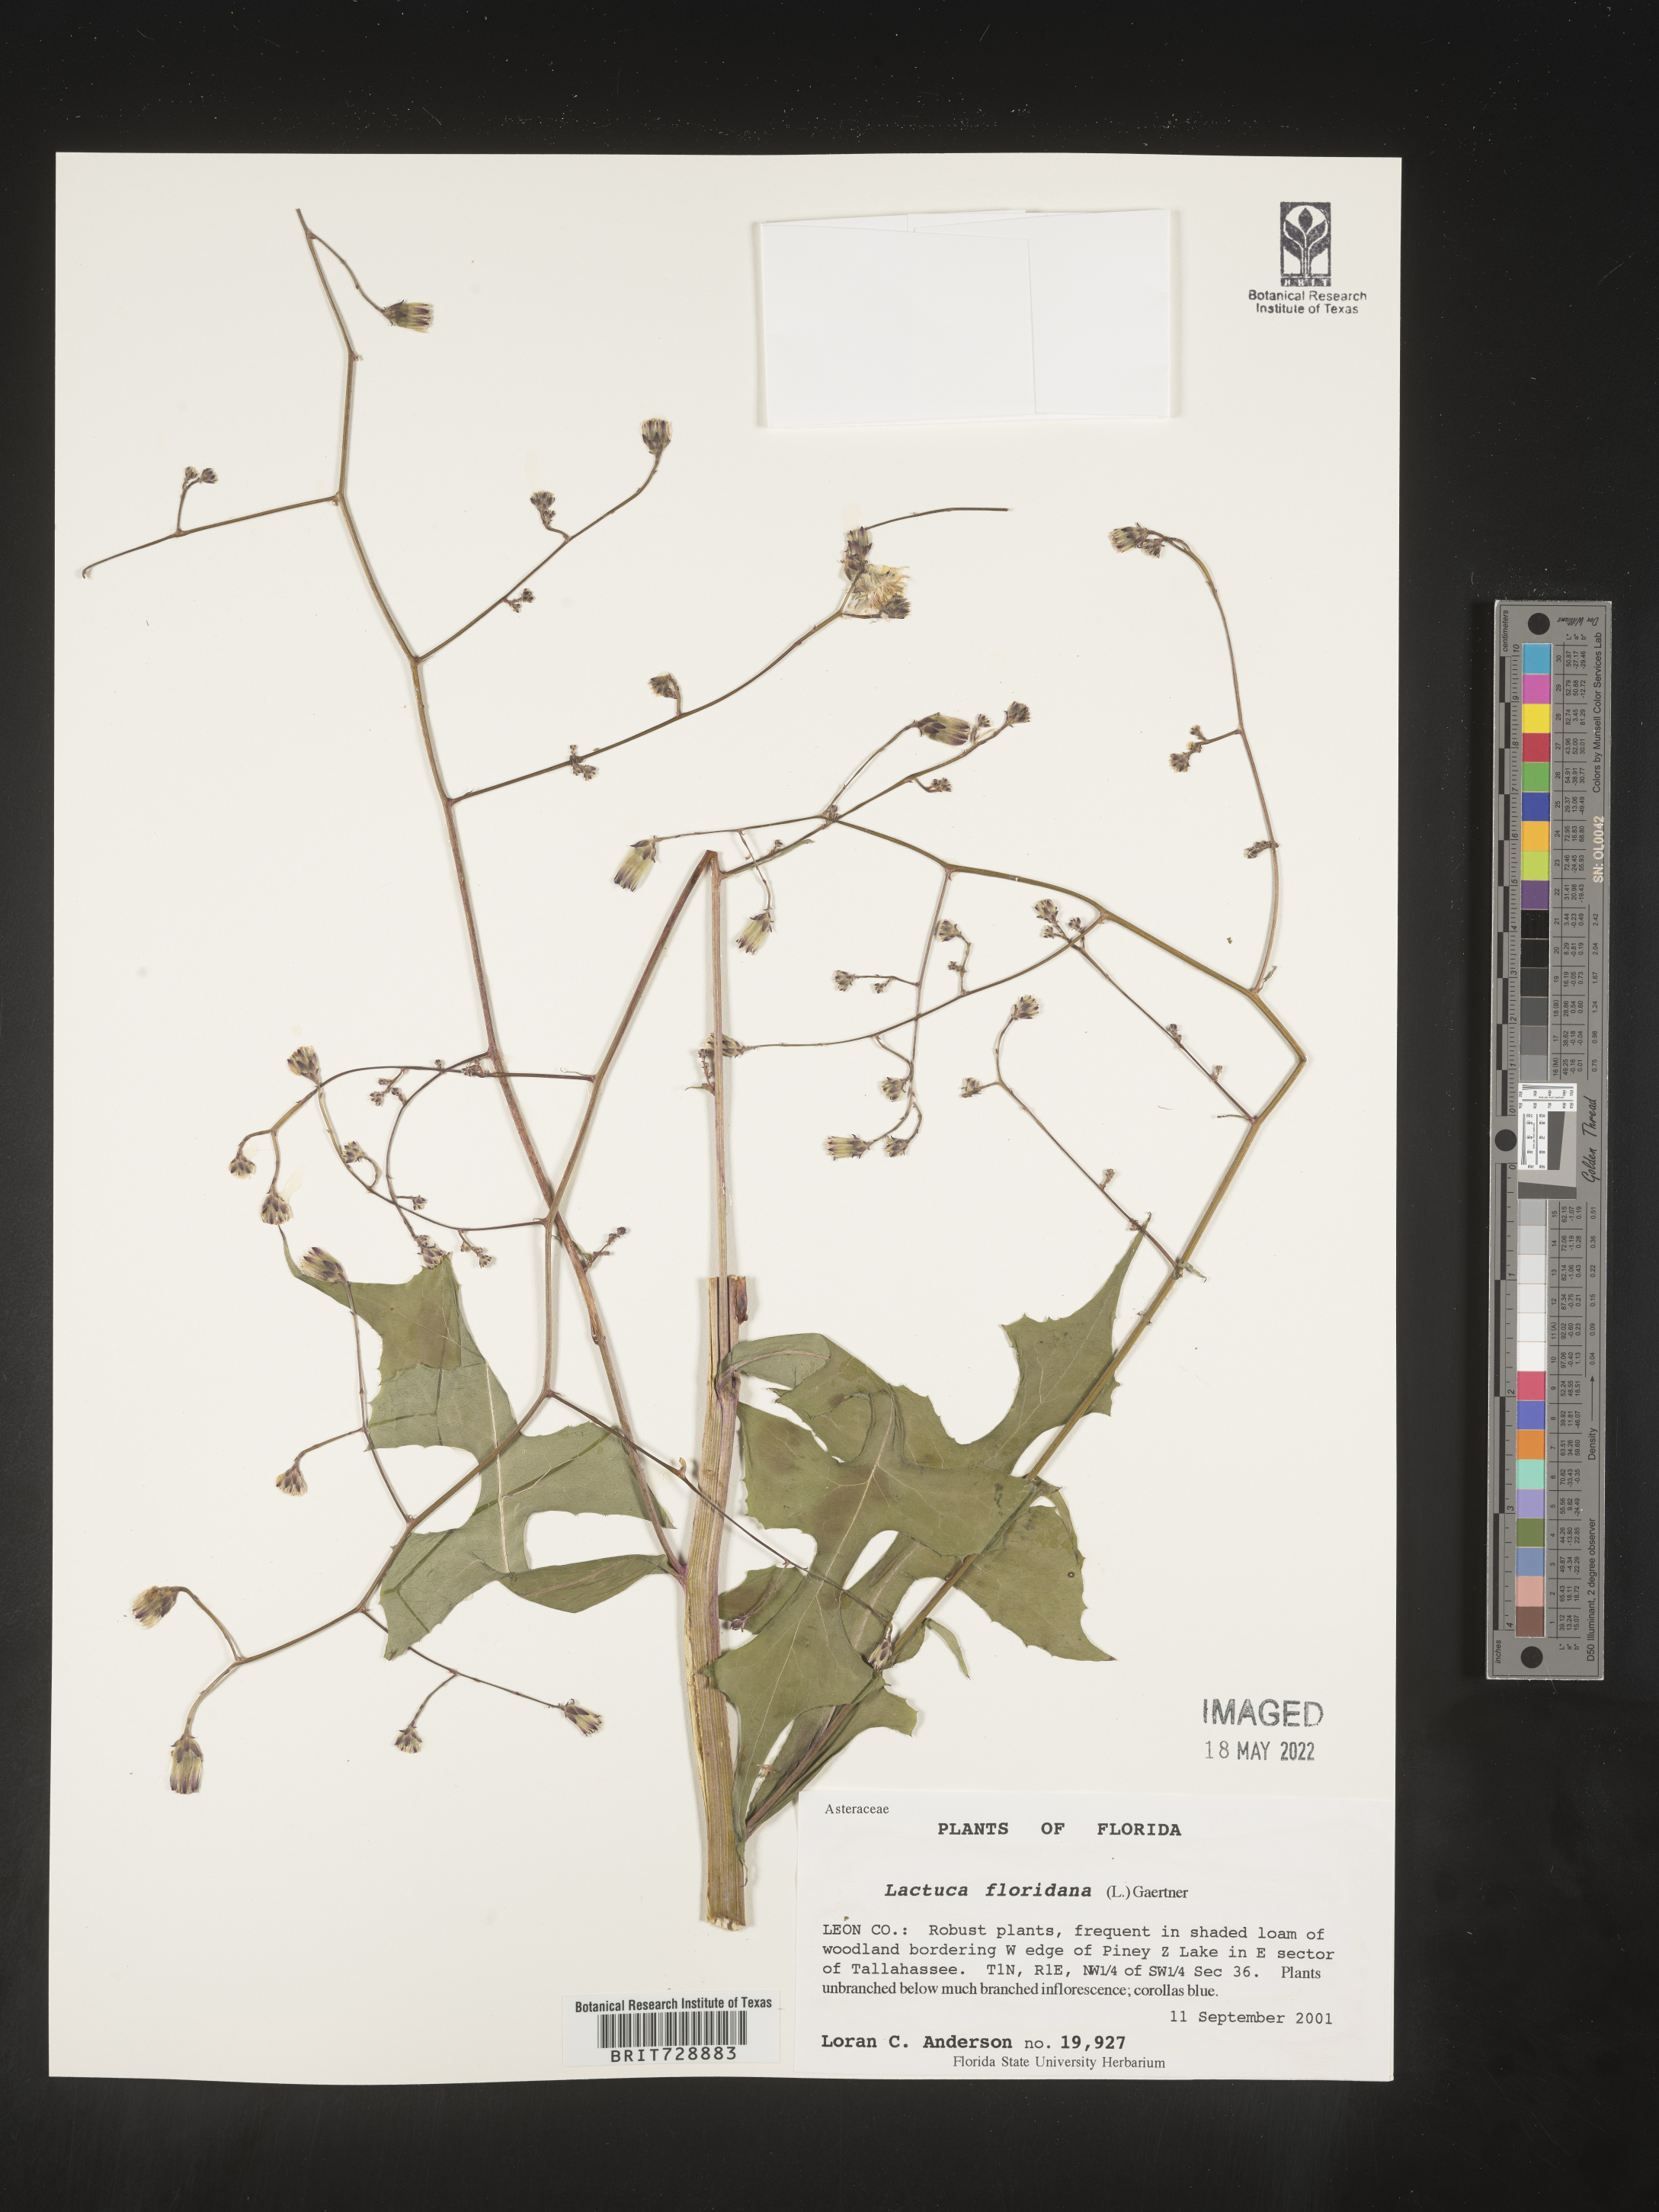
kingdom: Plantae
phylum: Tracheophyta
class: Magnoliopsida
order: Asterales
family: Asteraceae
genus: Lactuca
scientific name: Lactuca floridana
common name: Woodland lettuce
